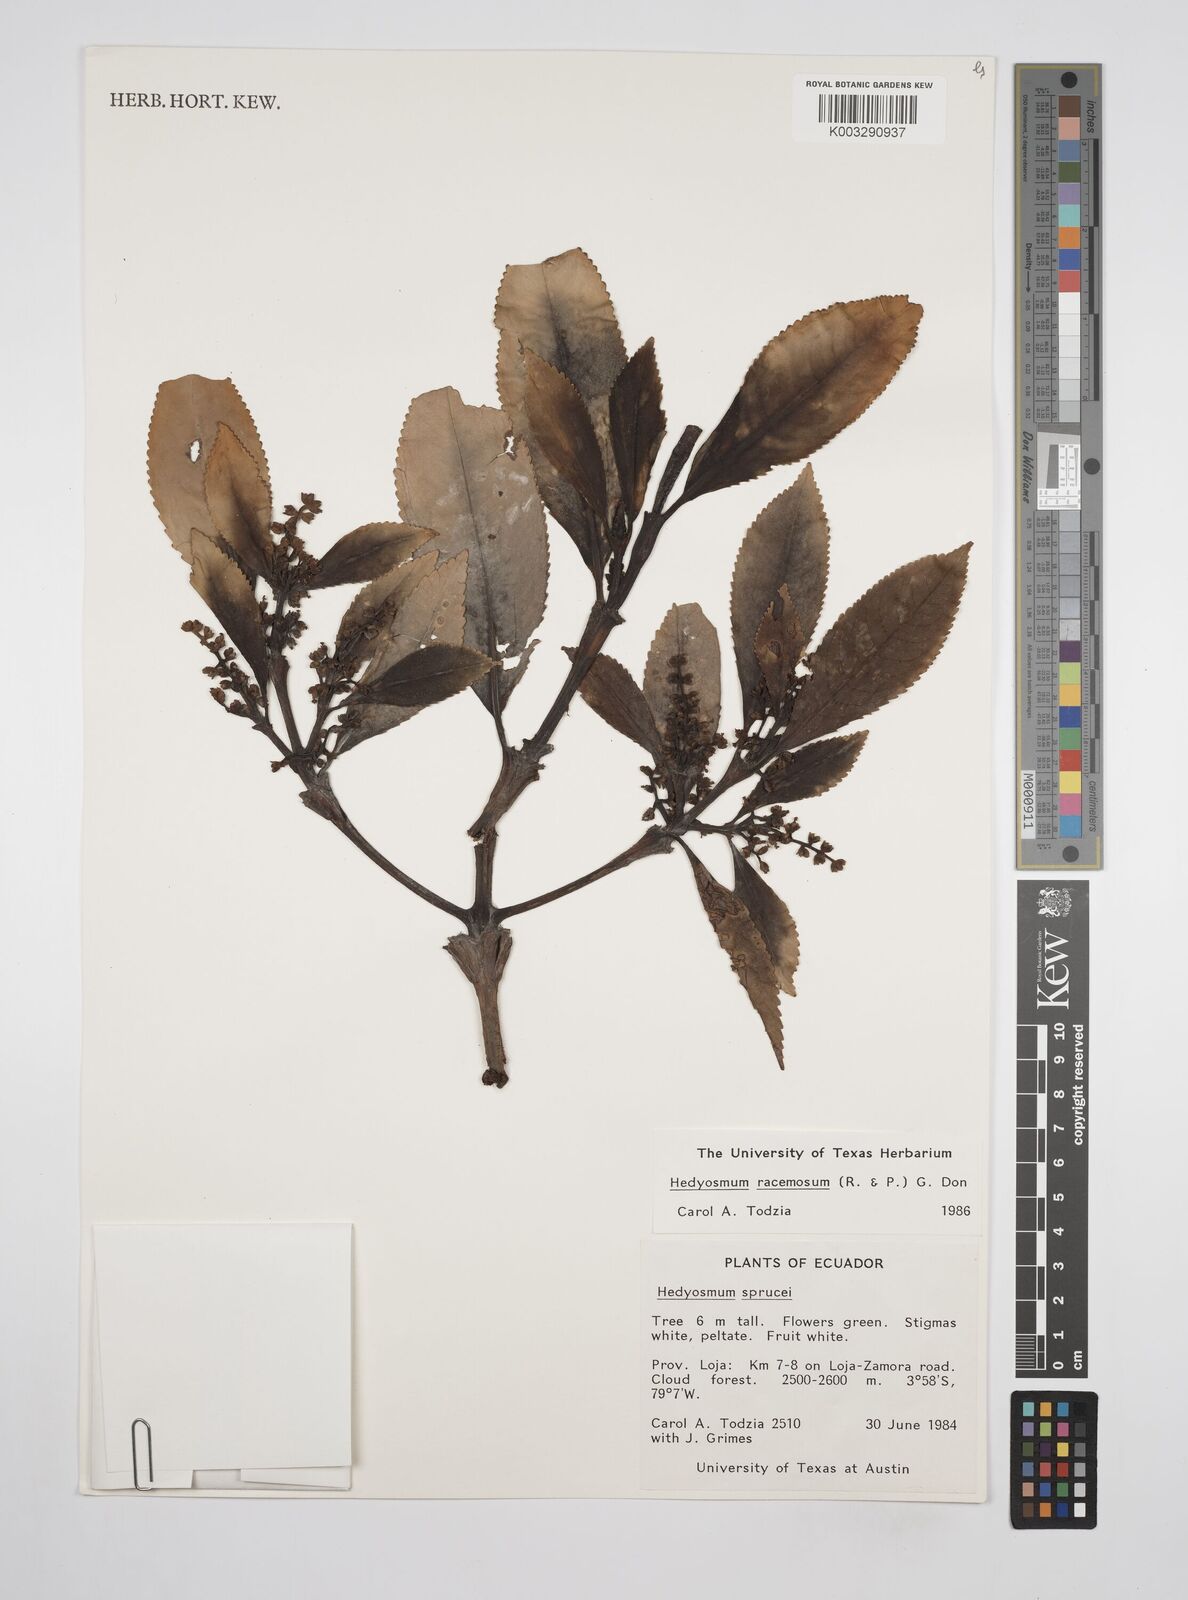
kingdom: Plantae
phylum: Tracheophyta
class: Magnoliopsida
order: Chloranthales
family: Chloranthaceae
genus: Hedyosmum
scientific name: Hedyosmum racemosum
